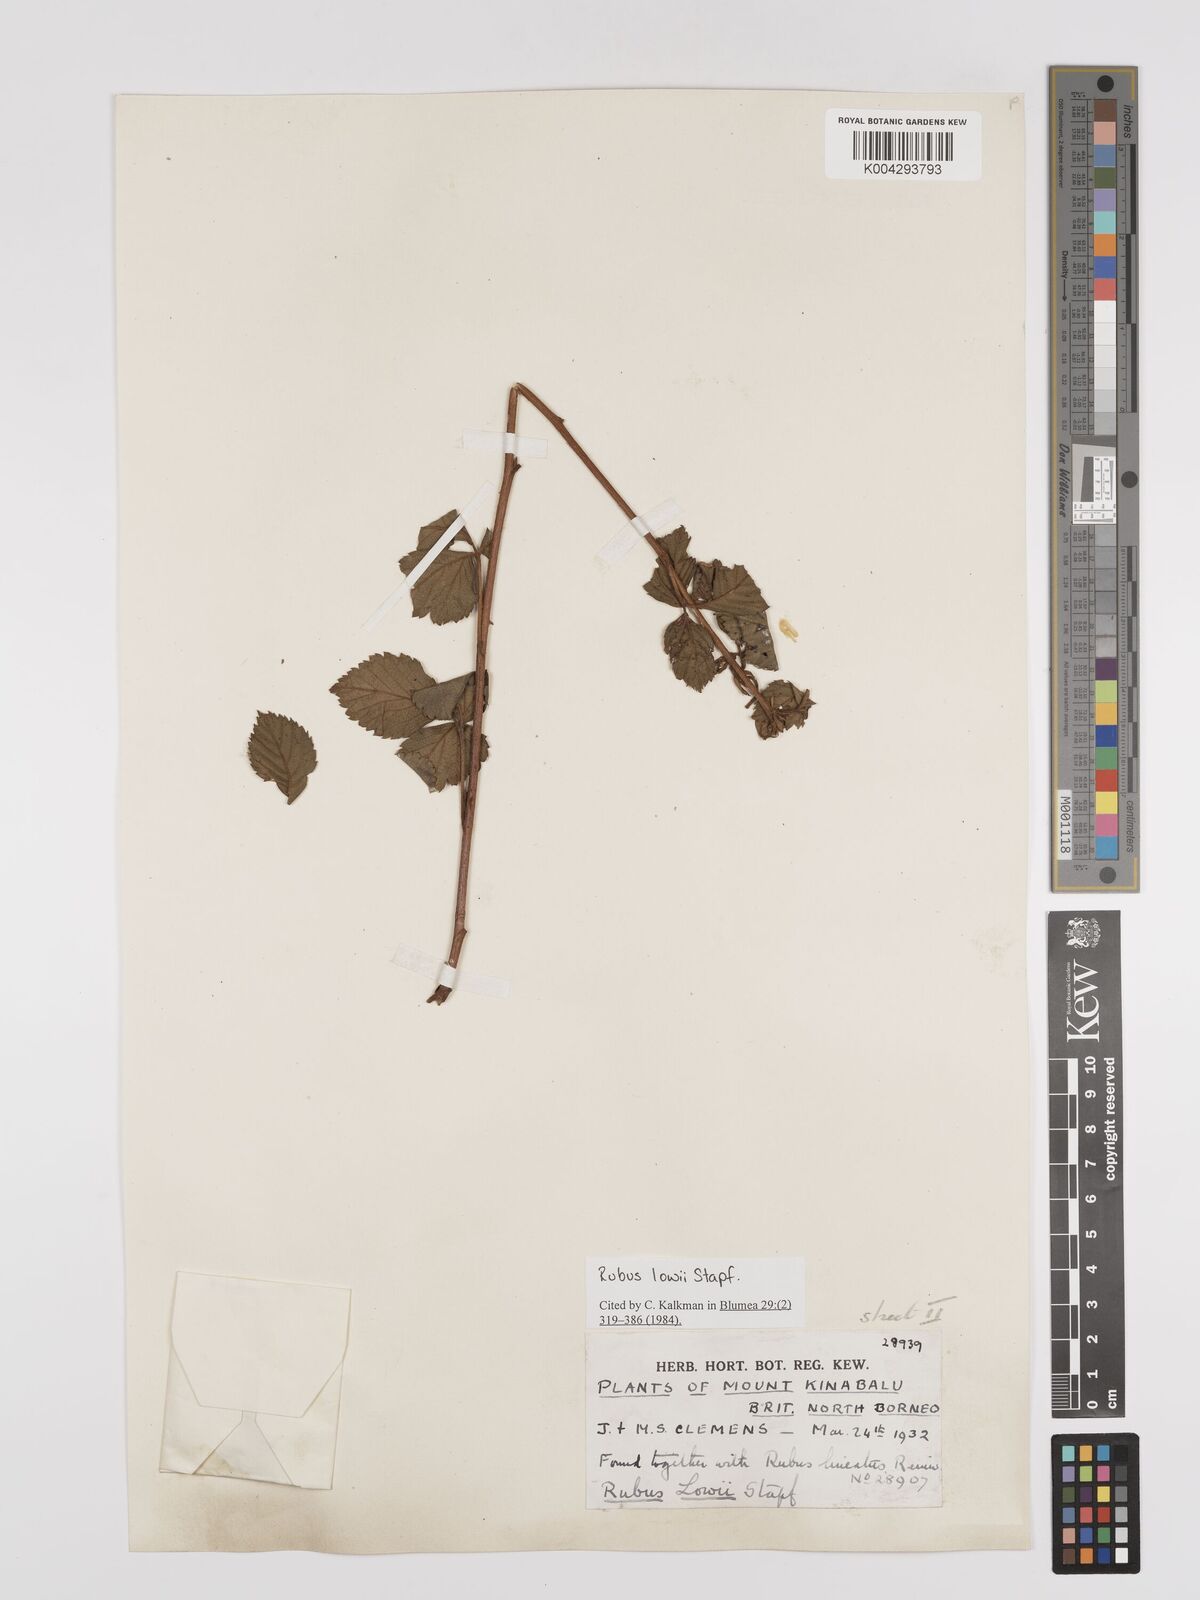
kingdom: Plantae
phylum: Tracheophyta
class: Magnoliopsida
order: Rosales
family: Rosaceae
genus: Rubus
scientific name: Rubus lowii
